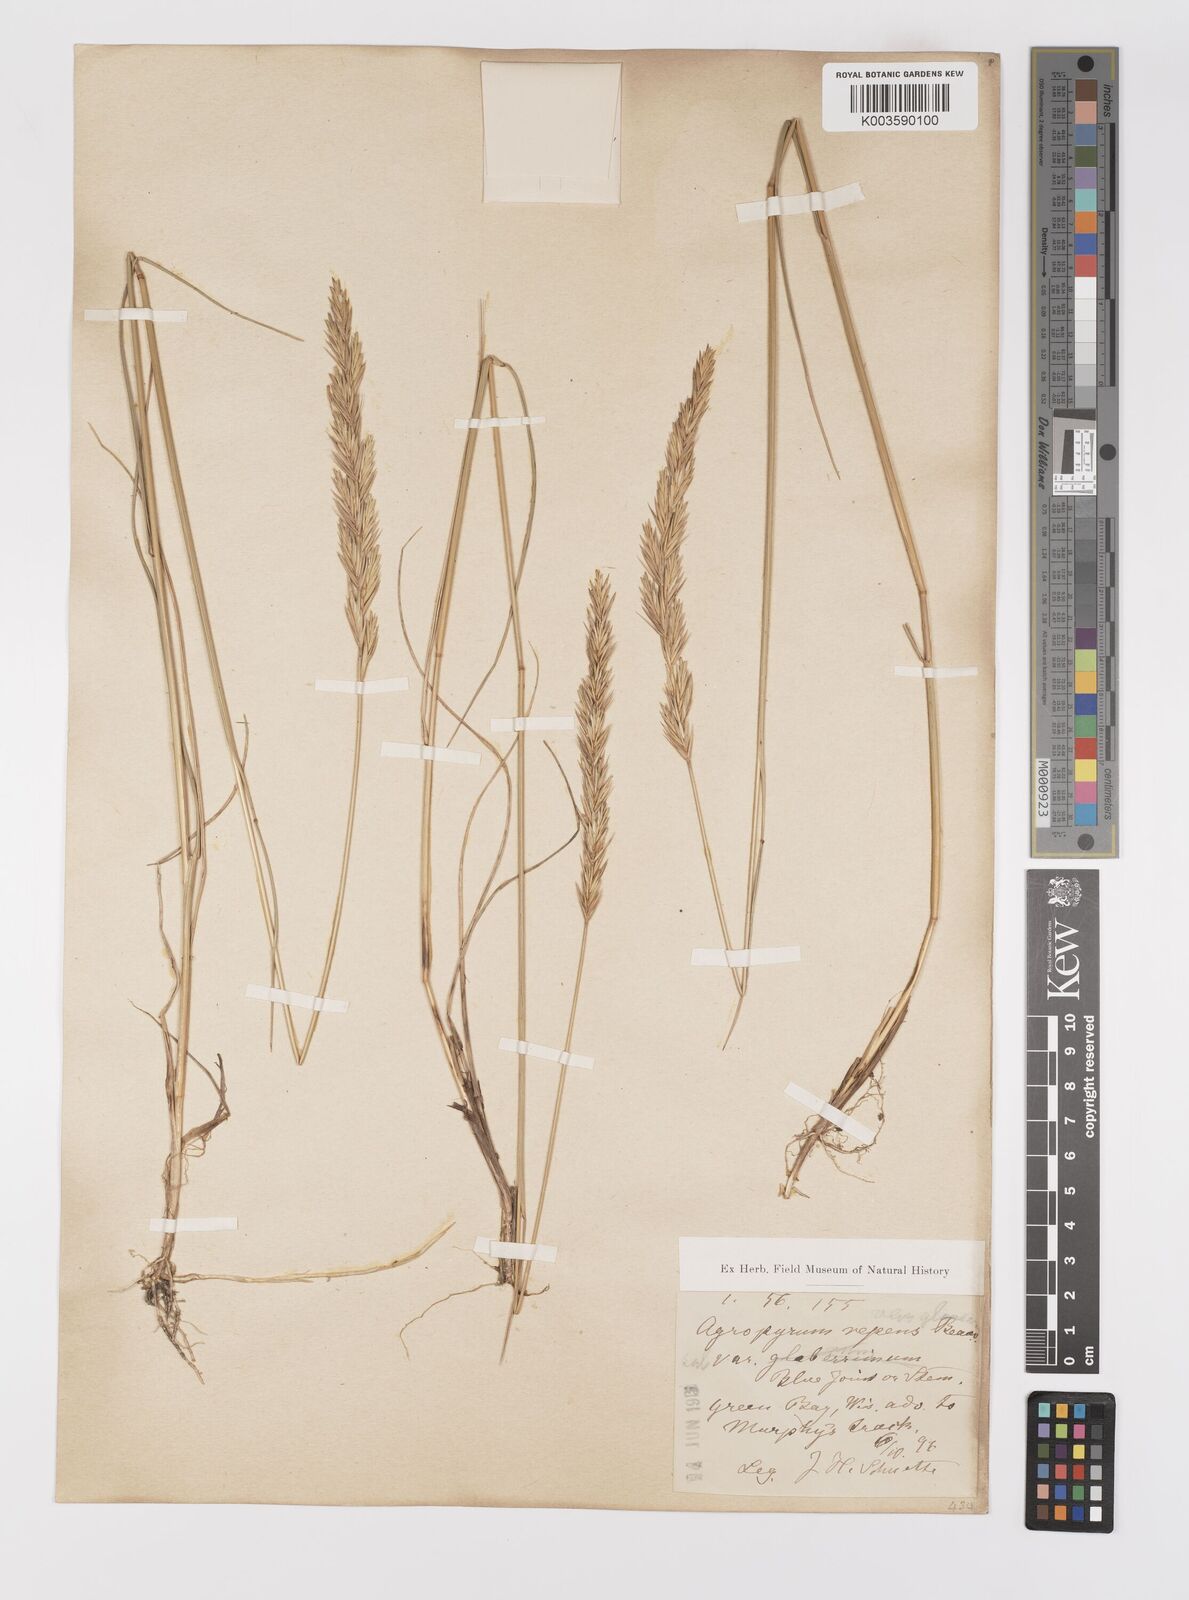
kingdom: Plantae
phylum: Tracheophyta
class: Liliopsida
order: Poales
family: Poaceae
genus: Elymus
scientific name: Elymus repens
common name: Quackgrass
